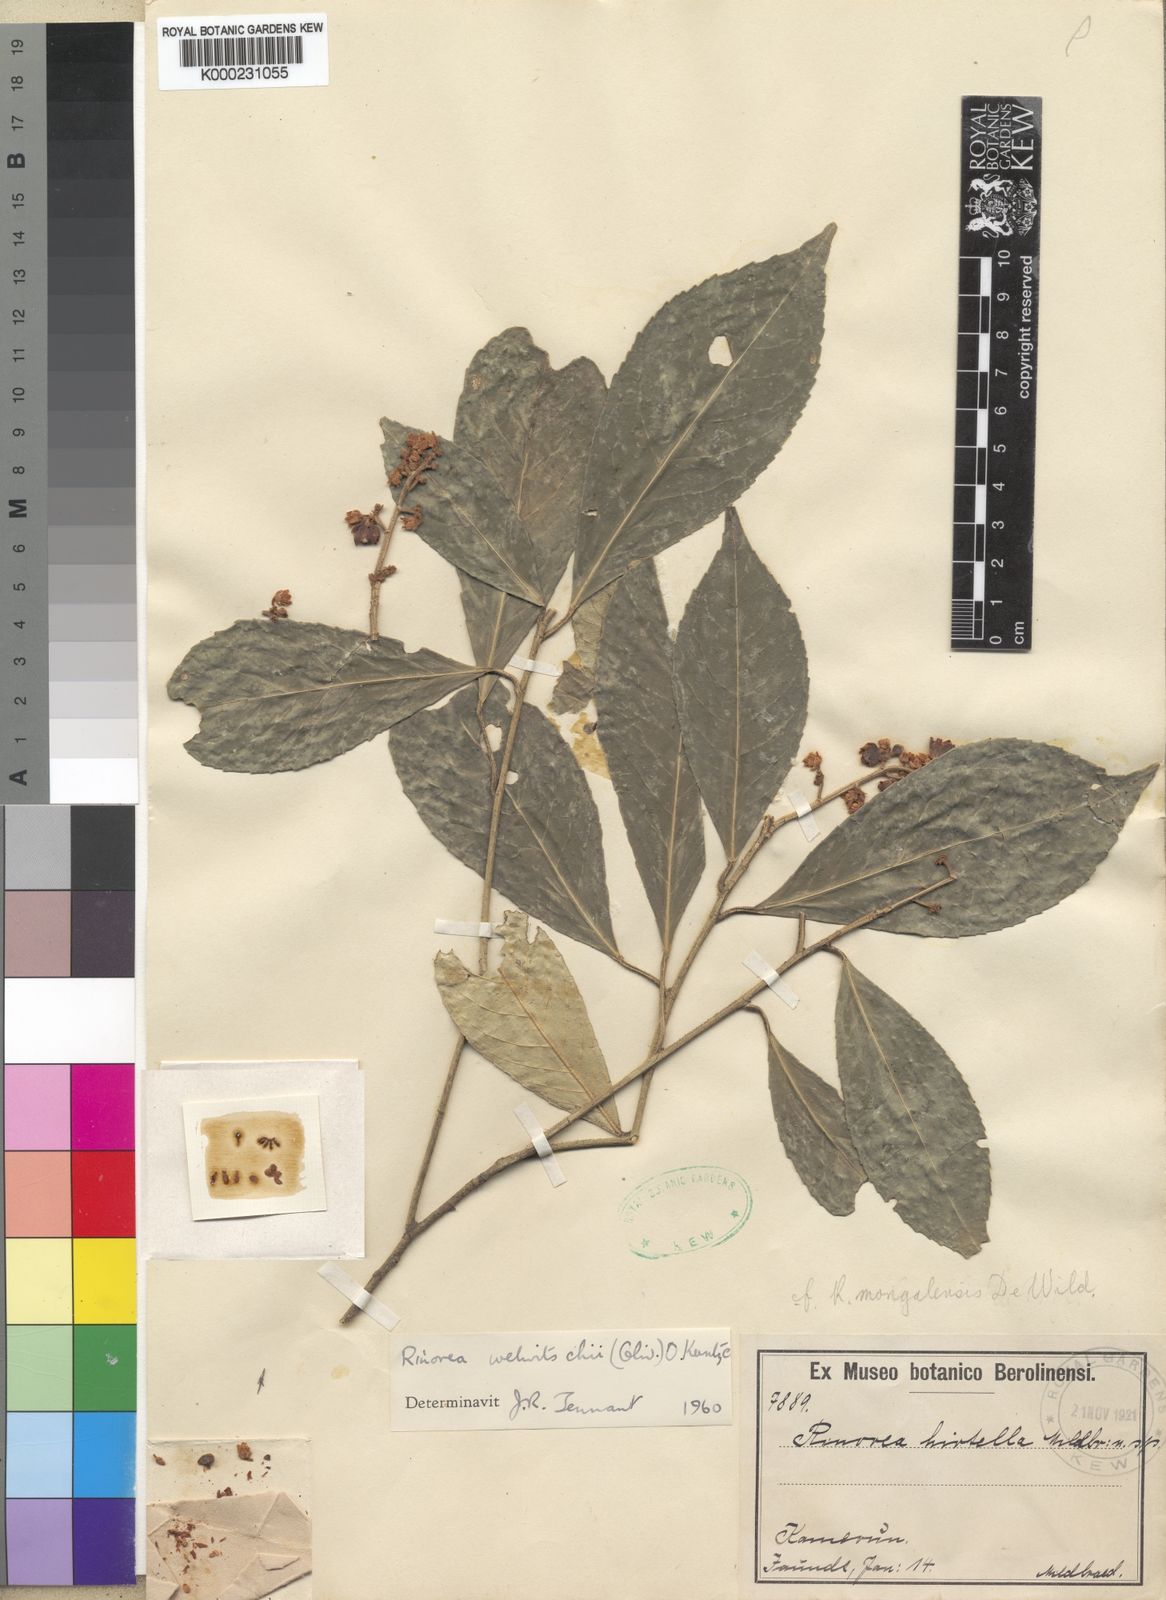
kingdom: Plantae
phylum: Tracheophyta
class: Magnoliopsida
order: Malpighiales
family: Violaceae
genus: Rinorea
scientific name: Rinorea welwitschii
